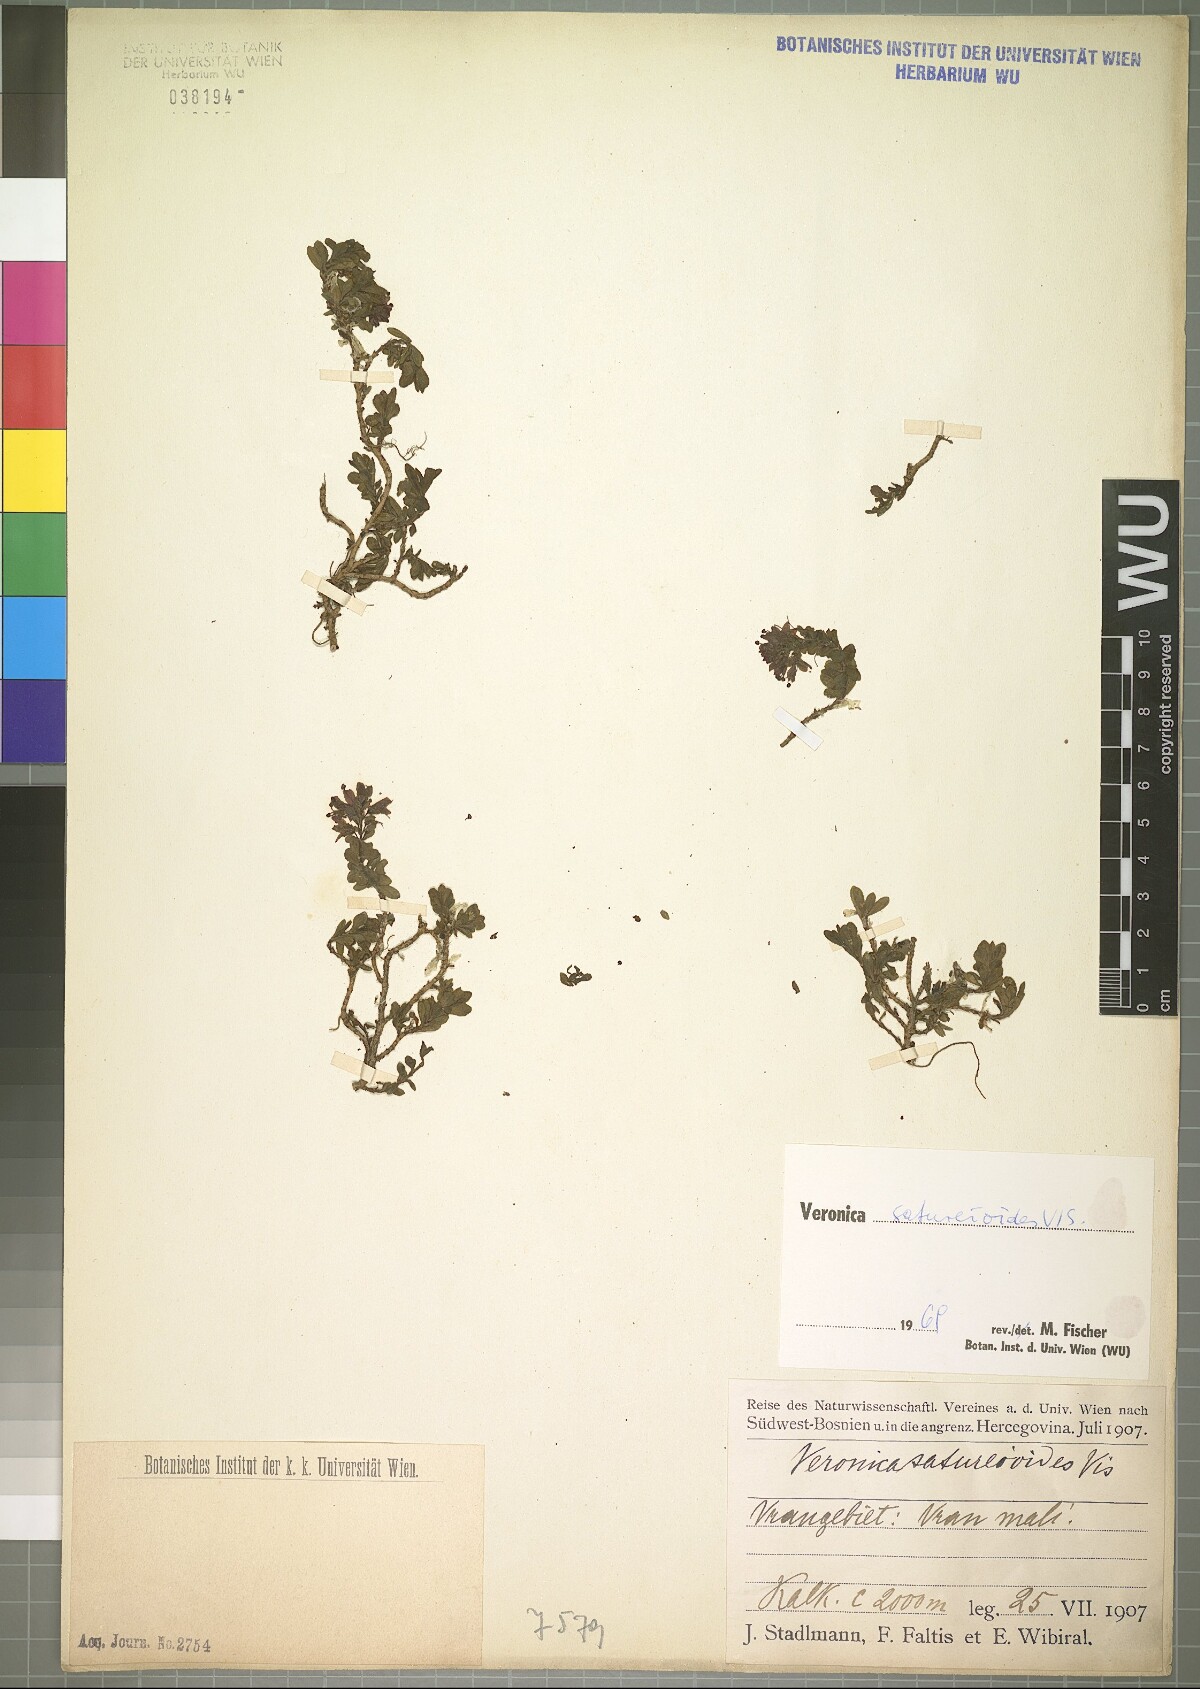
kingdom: Plantae
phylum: Tracheophyta
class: Magnoliopsida
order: Lamiales
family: Plantaginaceae
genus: Veronica
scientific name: Veronica saturejoides
